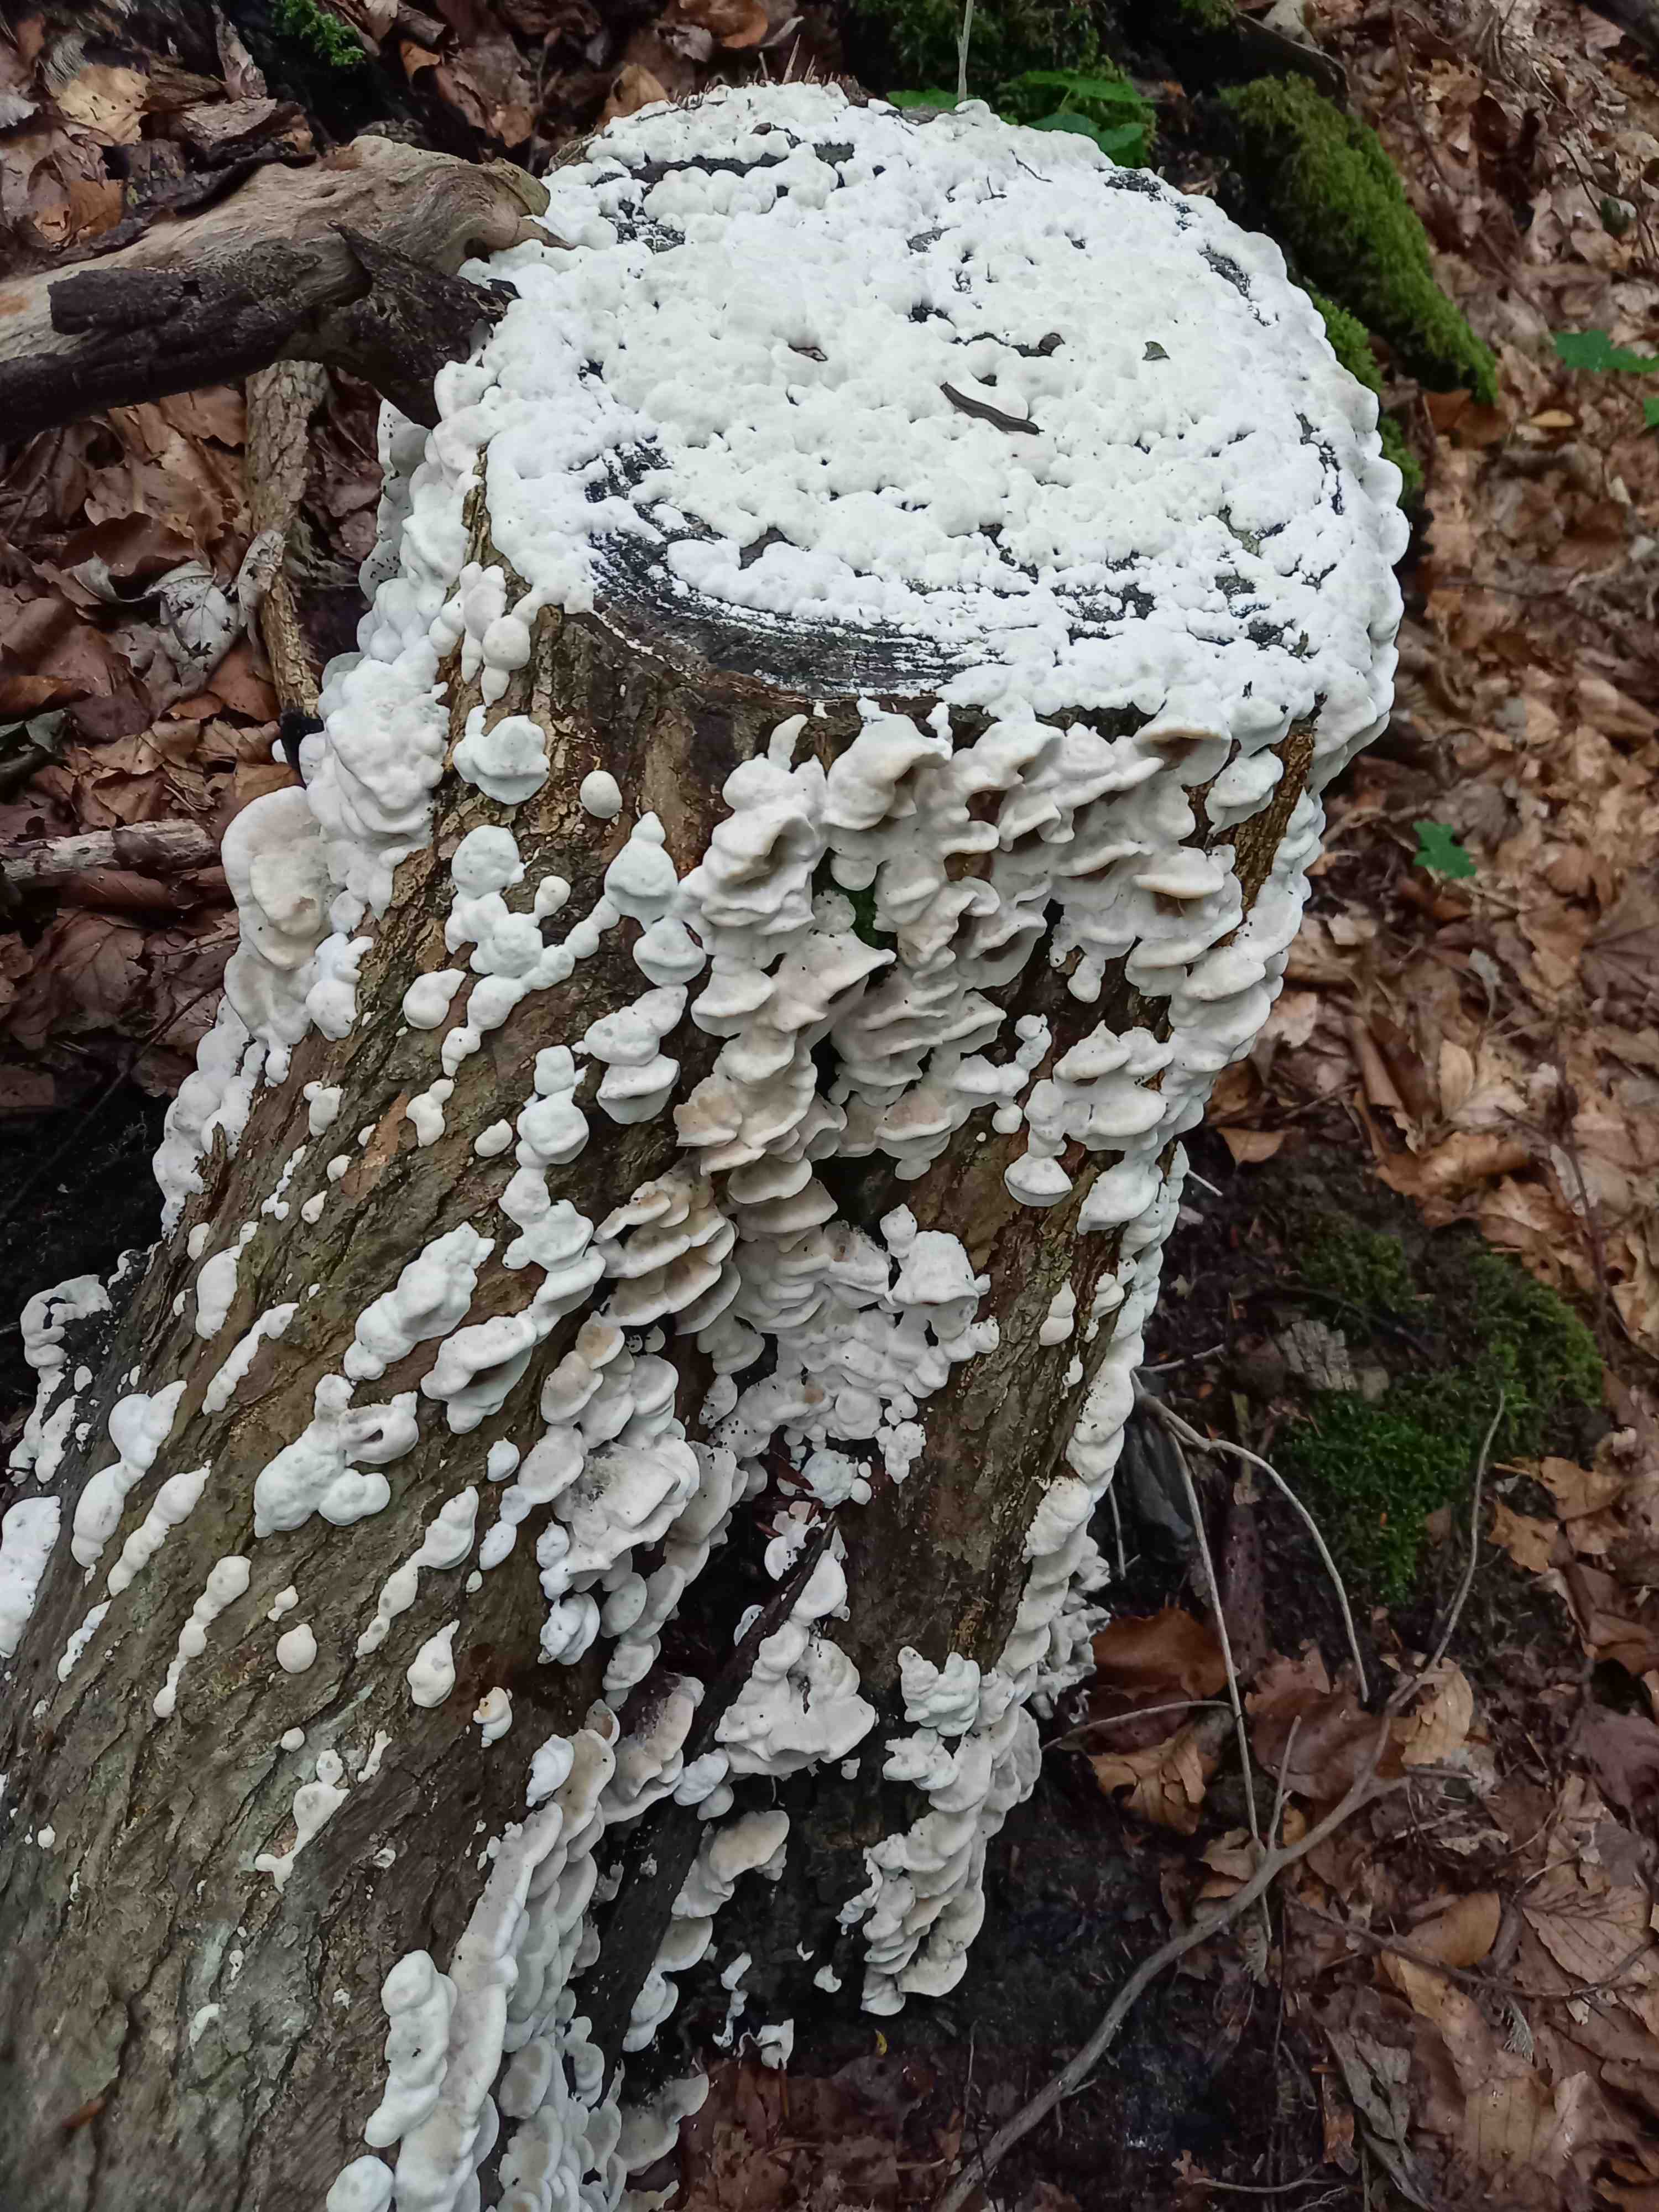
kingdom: Fungi
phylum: Basidiomycota
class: Agaricomycetes
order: Polyporales
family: Phanerochaetaceae
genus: Bjerkandera
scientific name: Bjerkandera adusta
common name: sveden sodporesvamp
